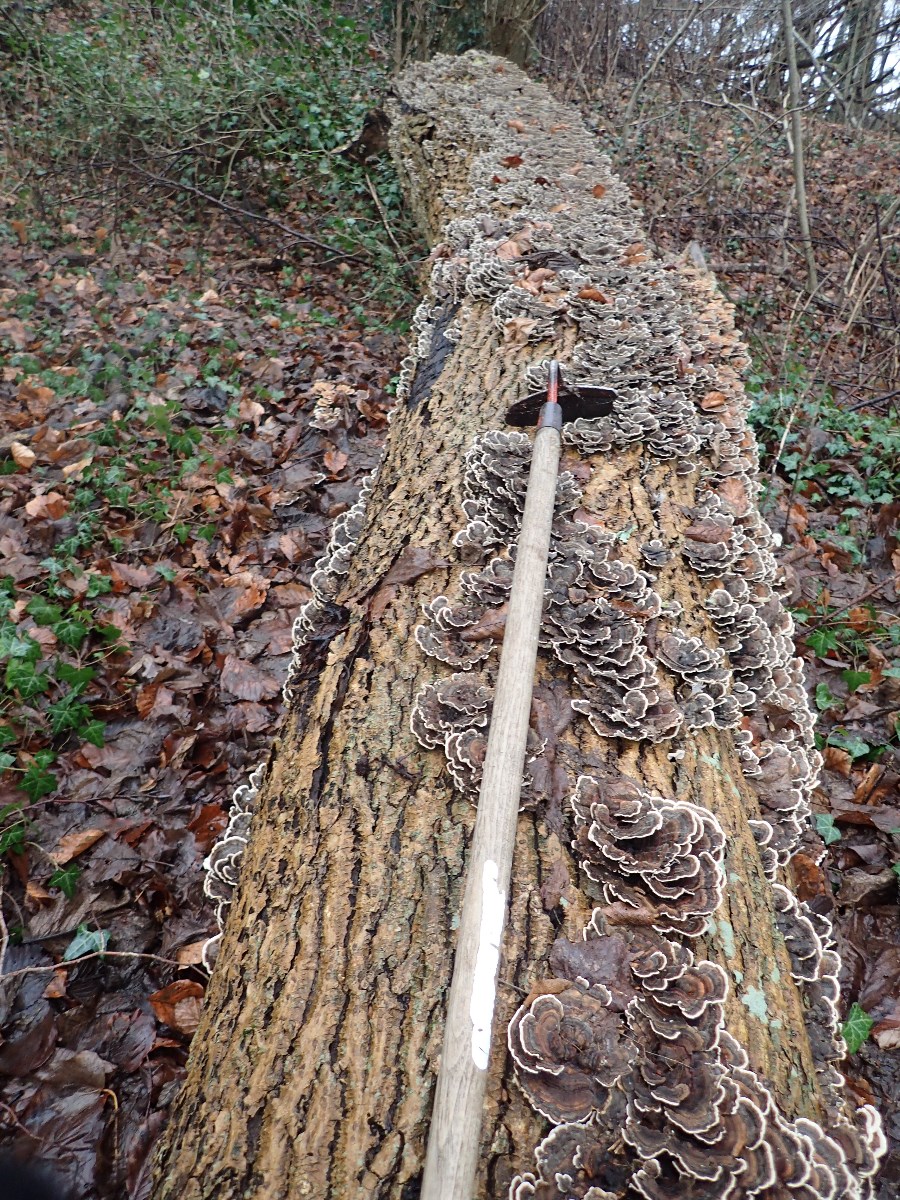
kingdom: Fungi
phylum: Basidiomycota
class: Agaricomycetes
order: Polyporales
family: Polyporaceae
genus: Trametes
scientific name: Trametes versicolor
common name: broget læderporesvamp
